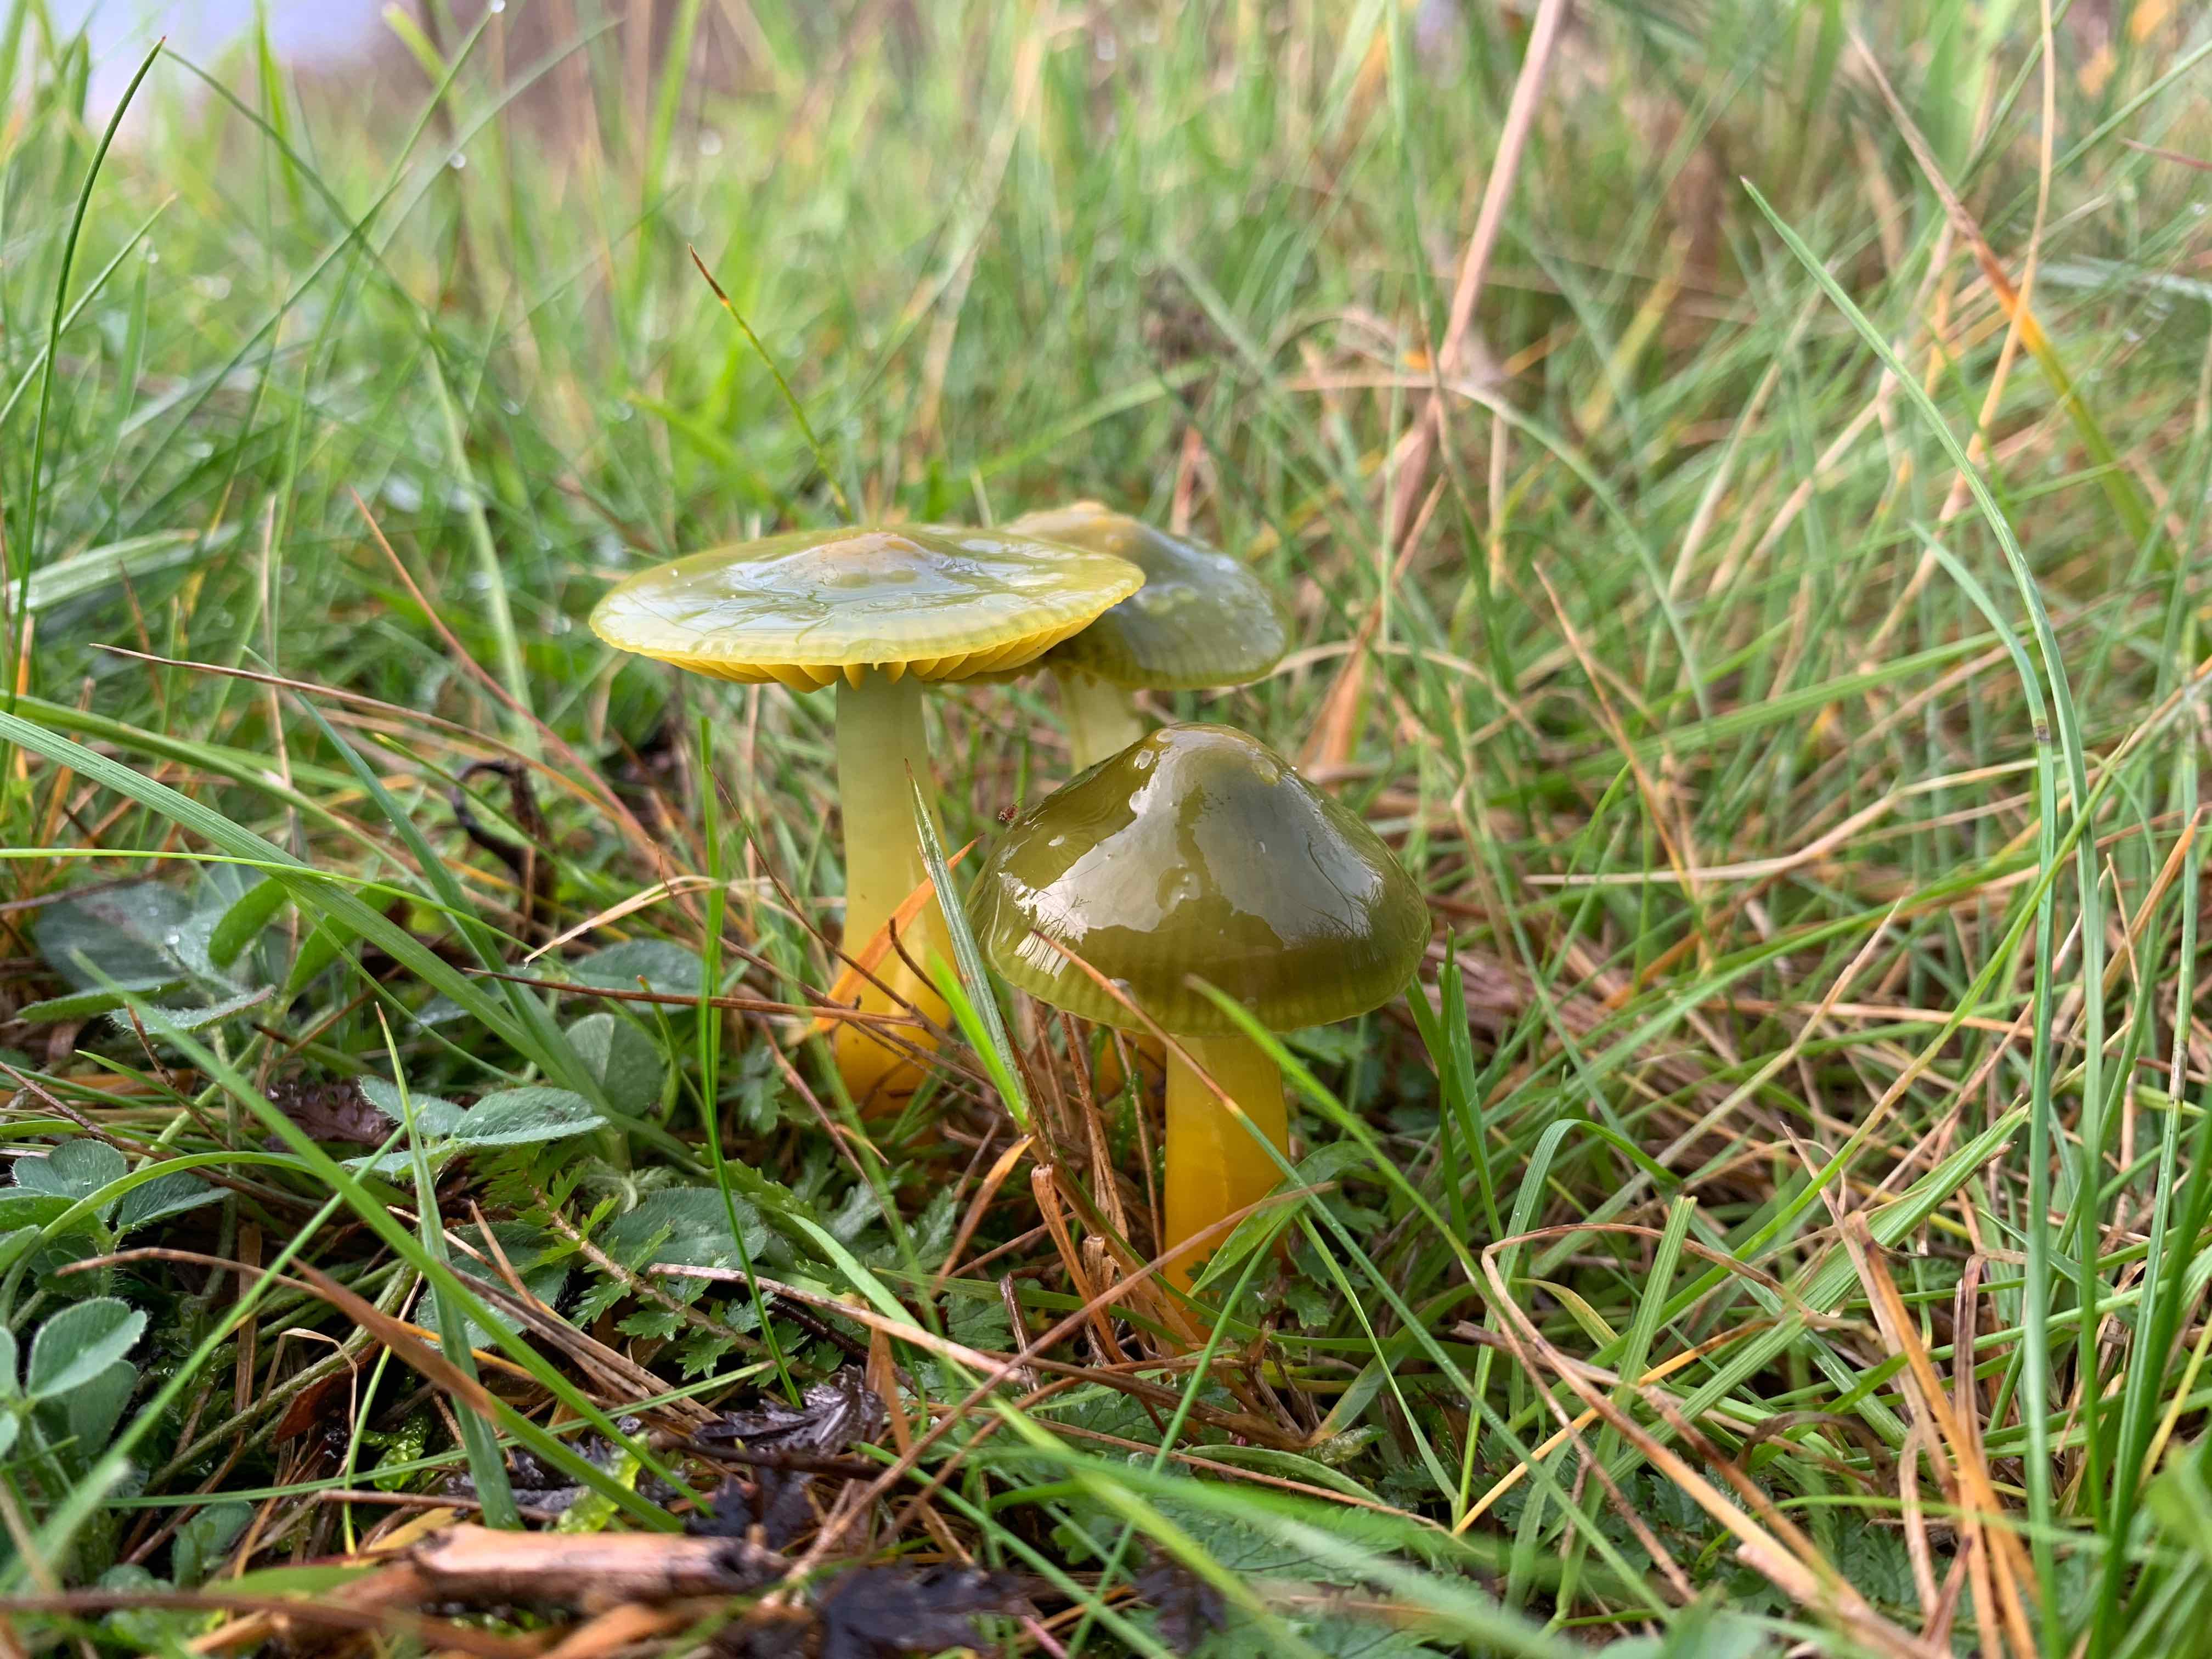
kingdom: Fungi
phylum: Basidiomycota
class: Agaricomycetes
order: Agaricales
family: Hygrophoraceae
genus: Gliophorus
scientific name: Gliophorus psittacinus
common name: papegøje-vokshat
